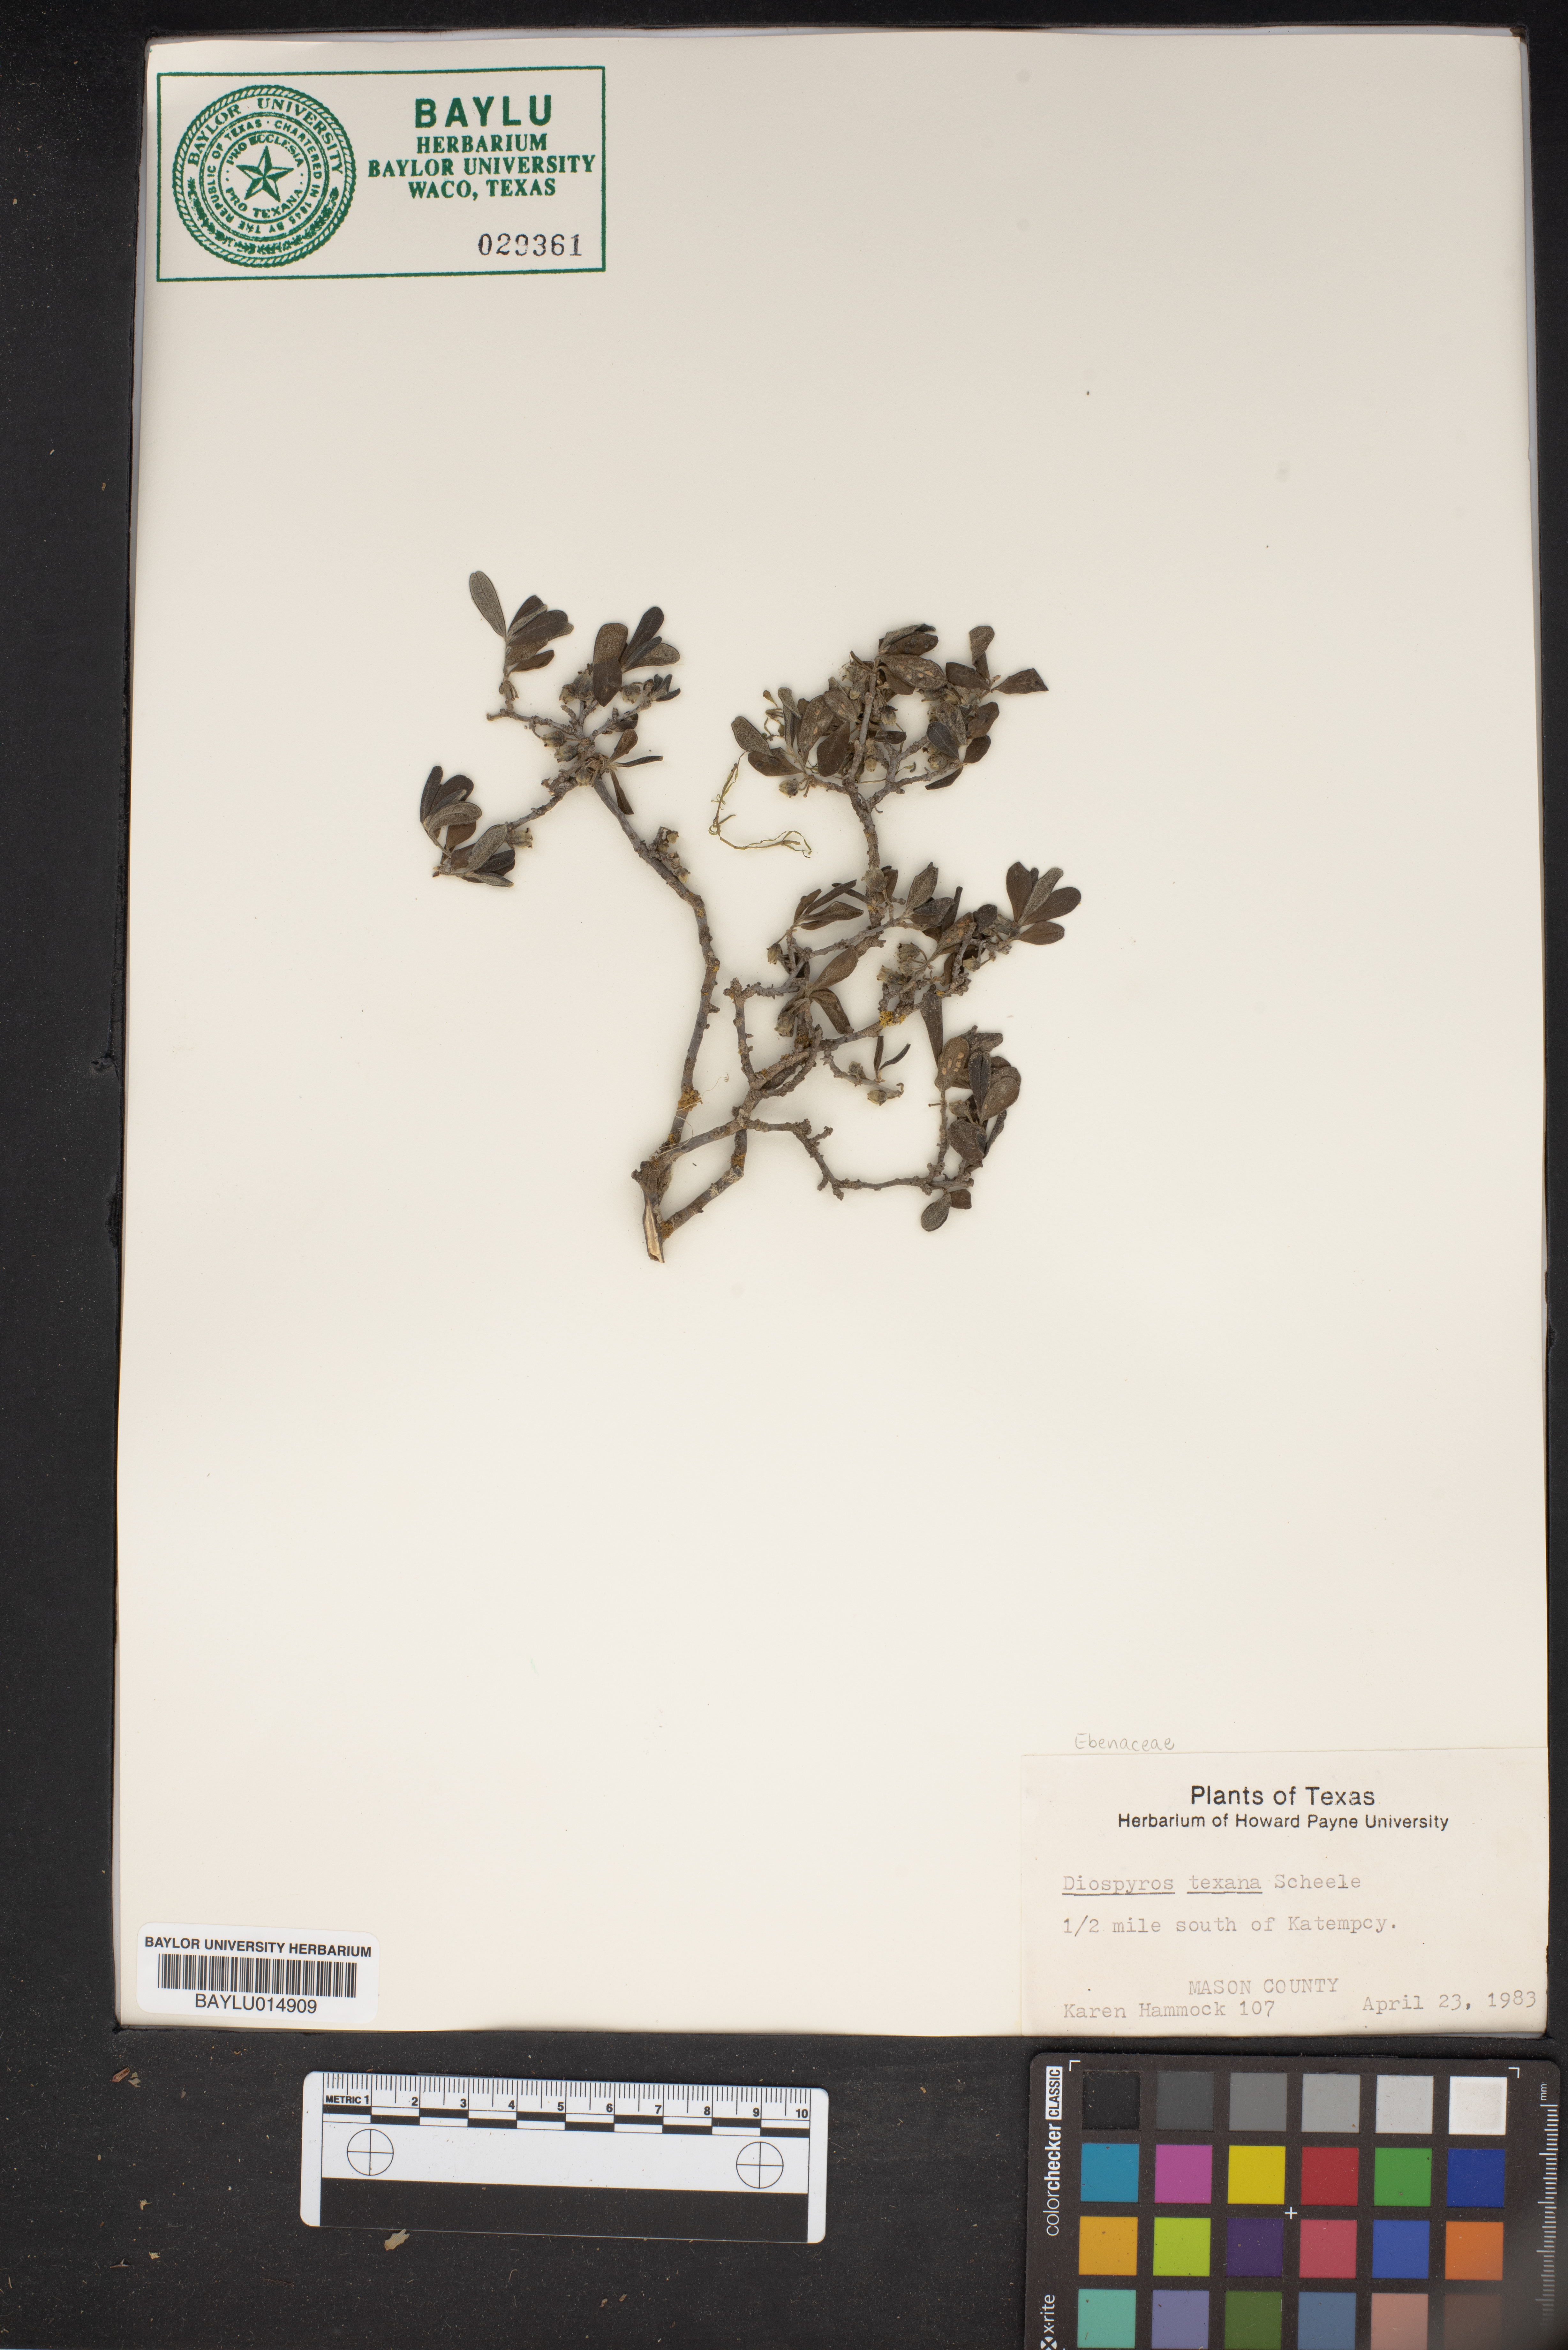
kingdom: Plantae
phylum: Tracheophyta
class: Magnoliopsida
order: Ericales
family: Ebenaceae
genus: Diospyros
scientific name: Diospyros texana
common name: Texas persimmon
